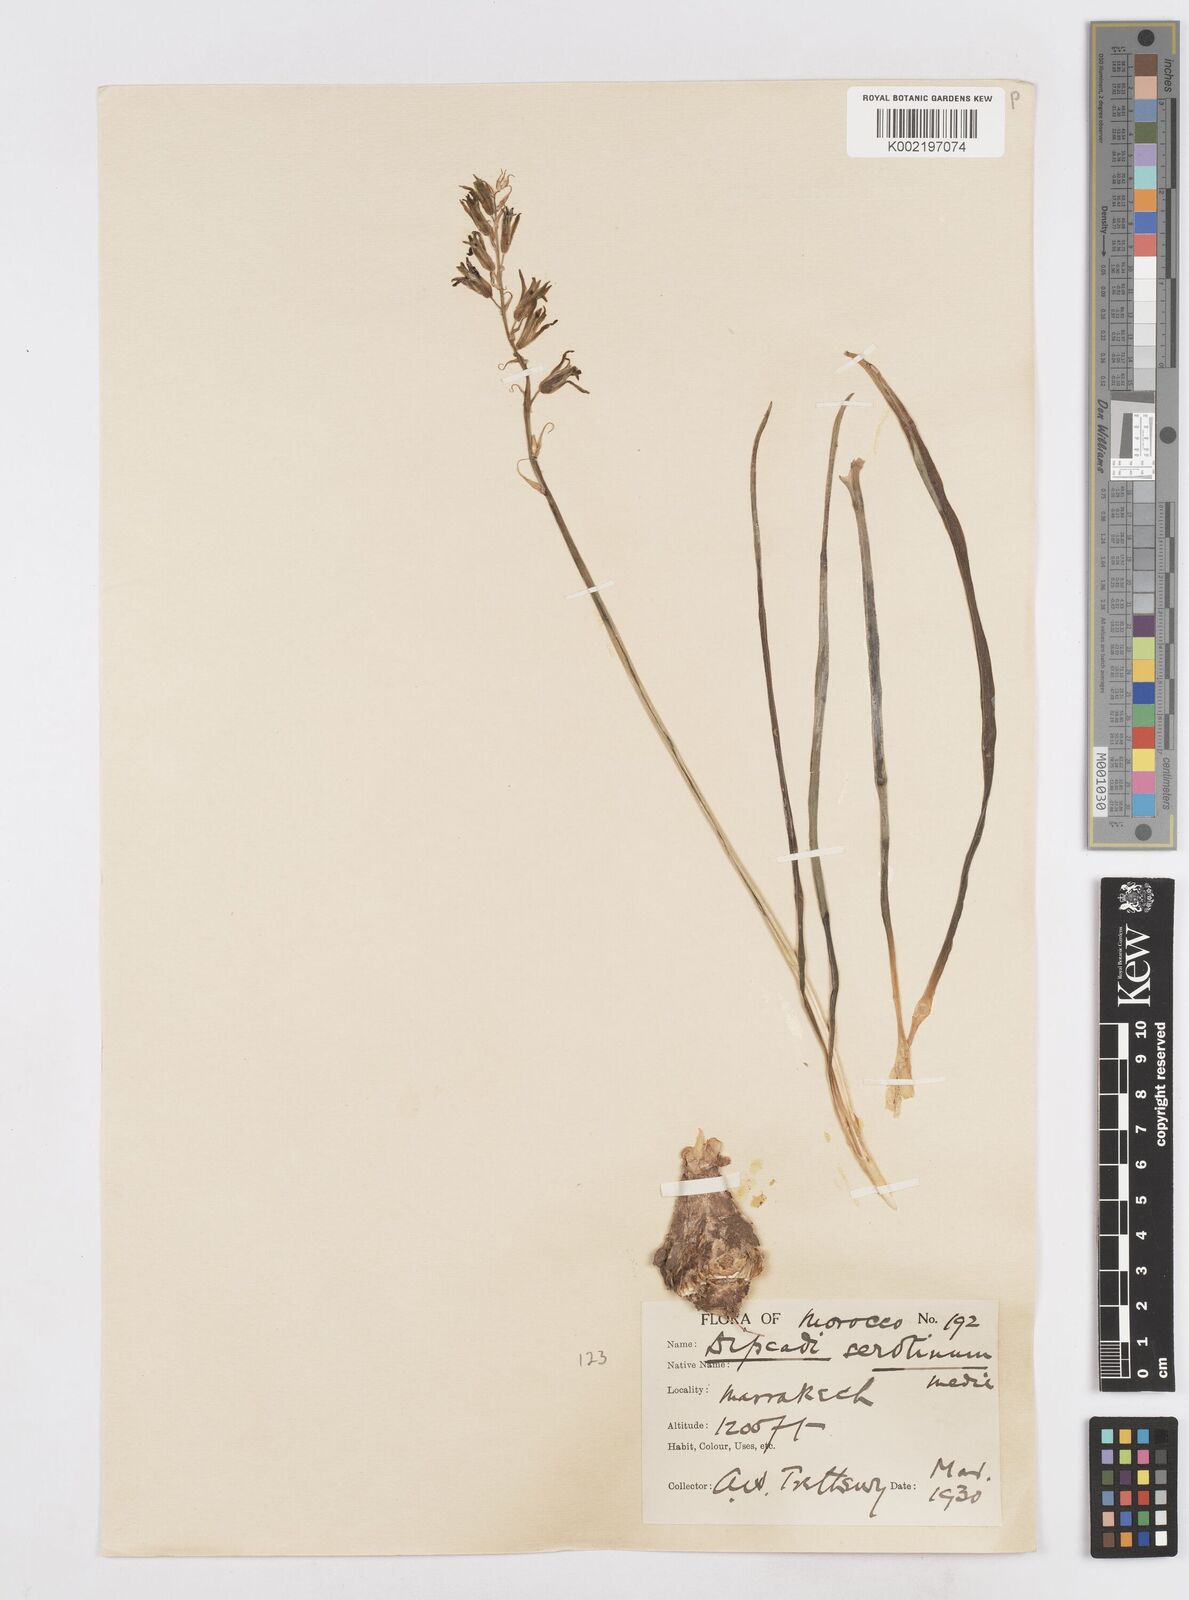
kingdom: Plantae
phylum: Tracheophyta
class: Liliopsida
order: Asparagales
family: Asparagaceae
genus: Dipcadi
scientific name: Dipcadi serotinum
